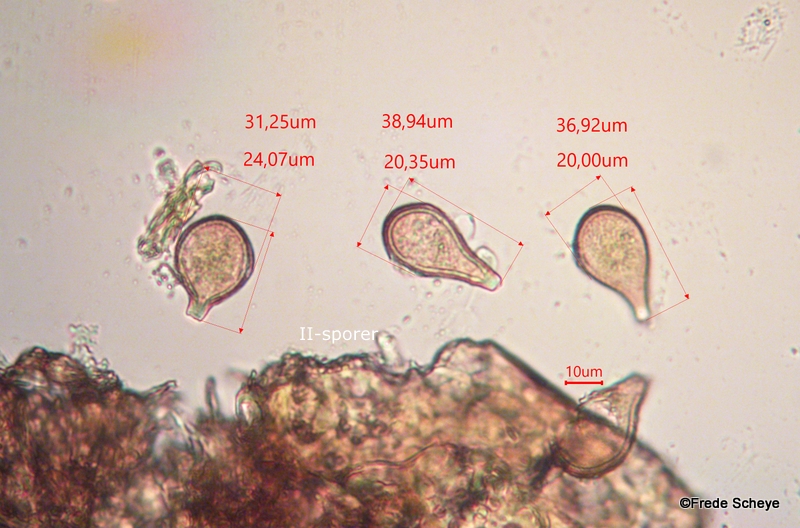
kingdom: Fungi
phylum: Basidiomycota
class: Pucciniomycetes
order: Pucciniales
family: Pucciniaceae
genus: Cumminsiella
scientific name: Cumminsiella mirabilissima
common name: mahonierust
